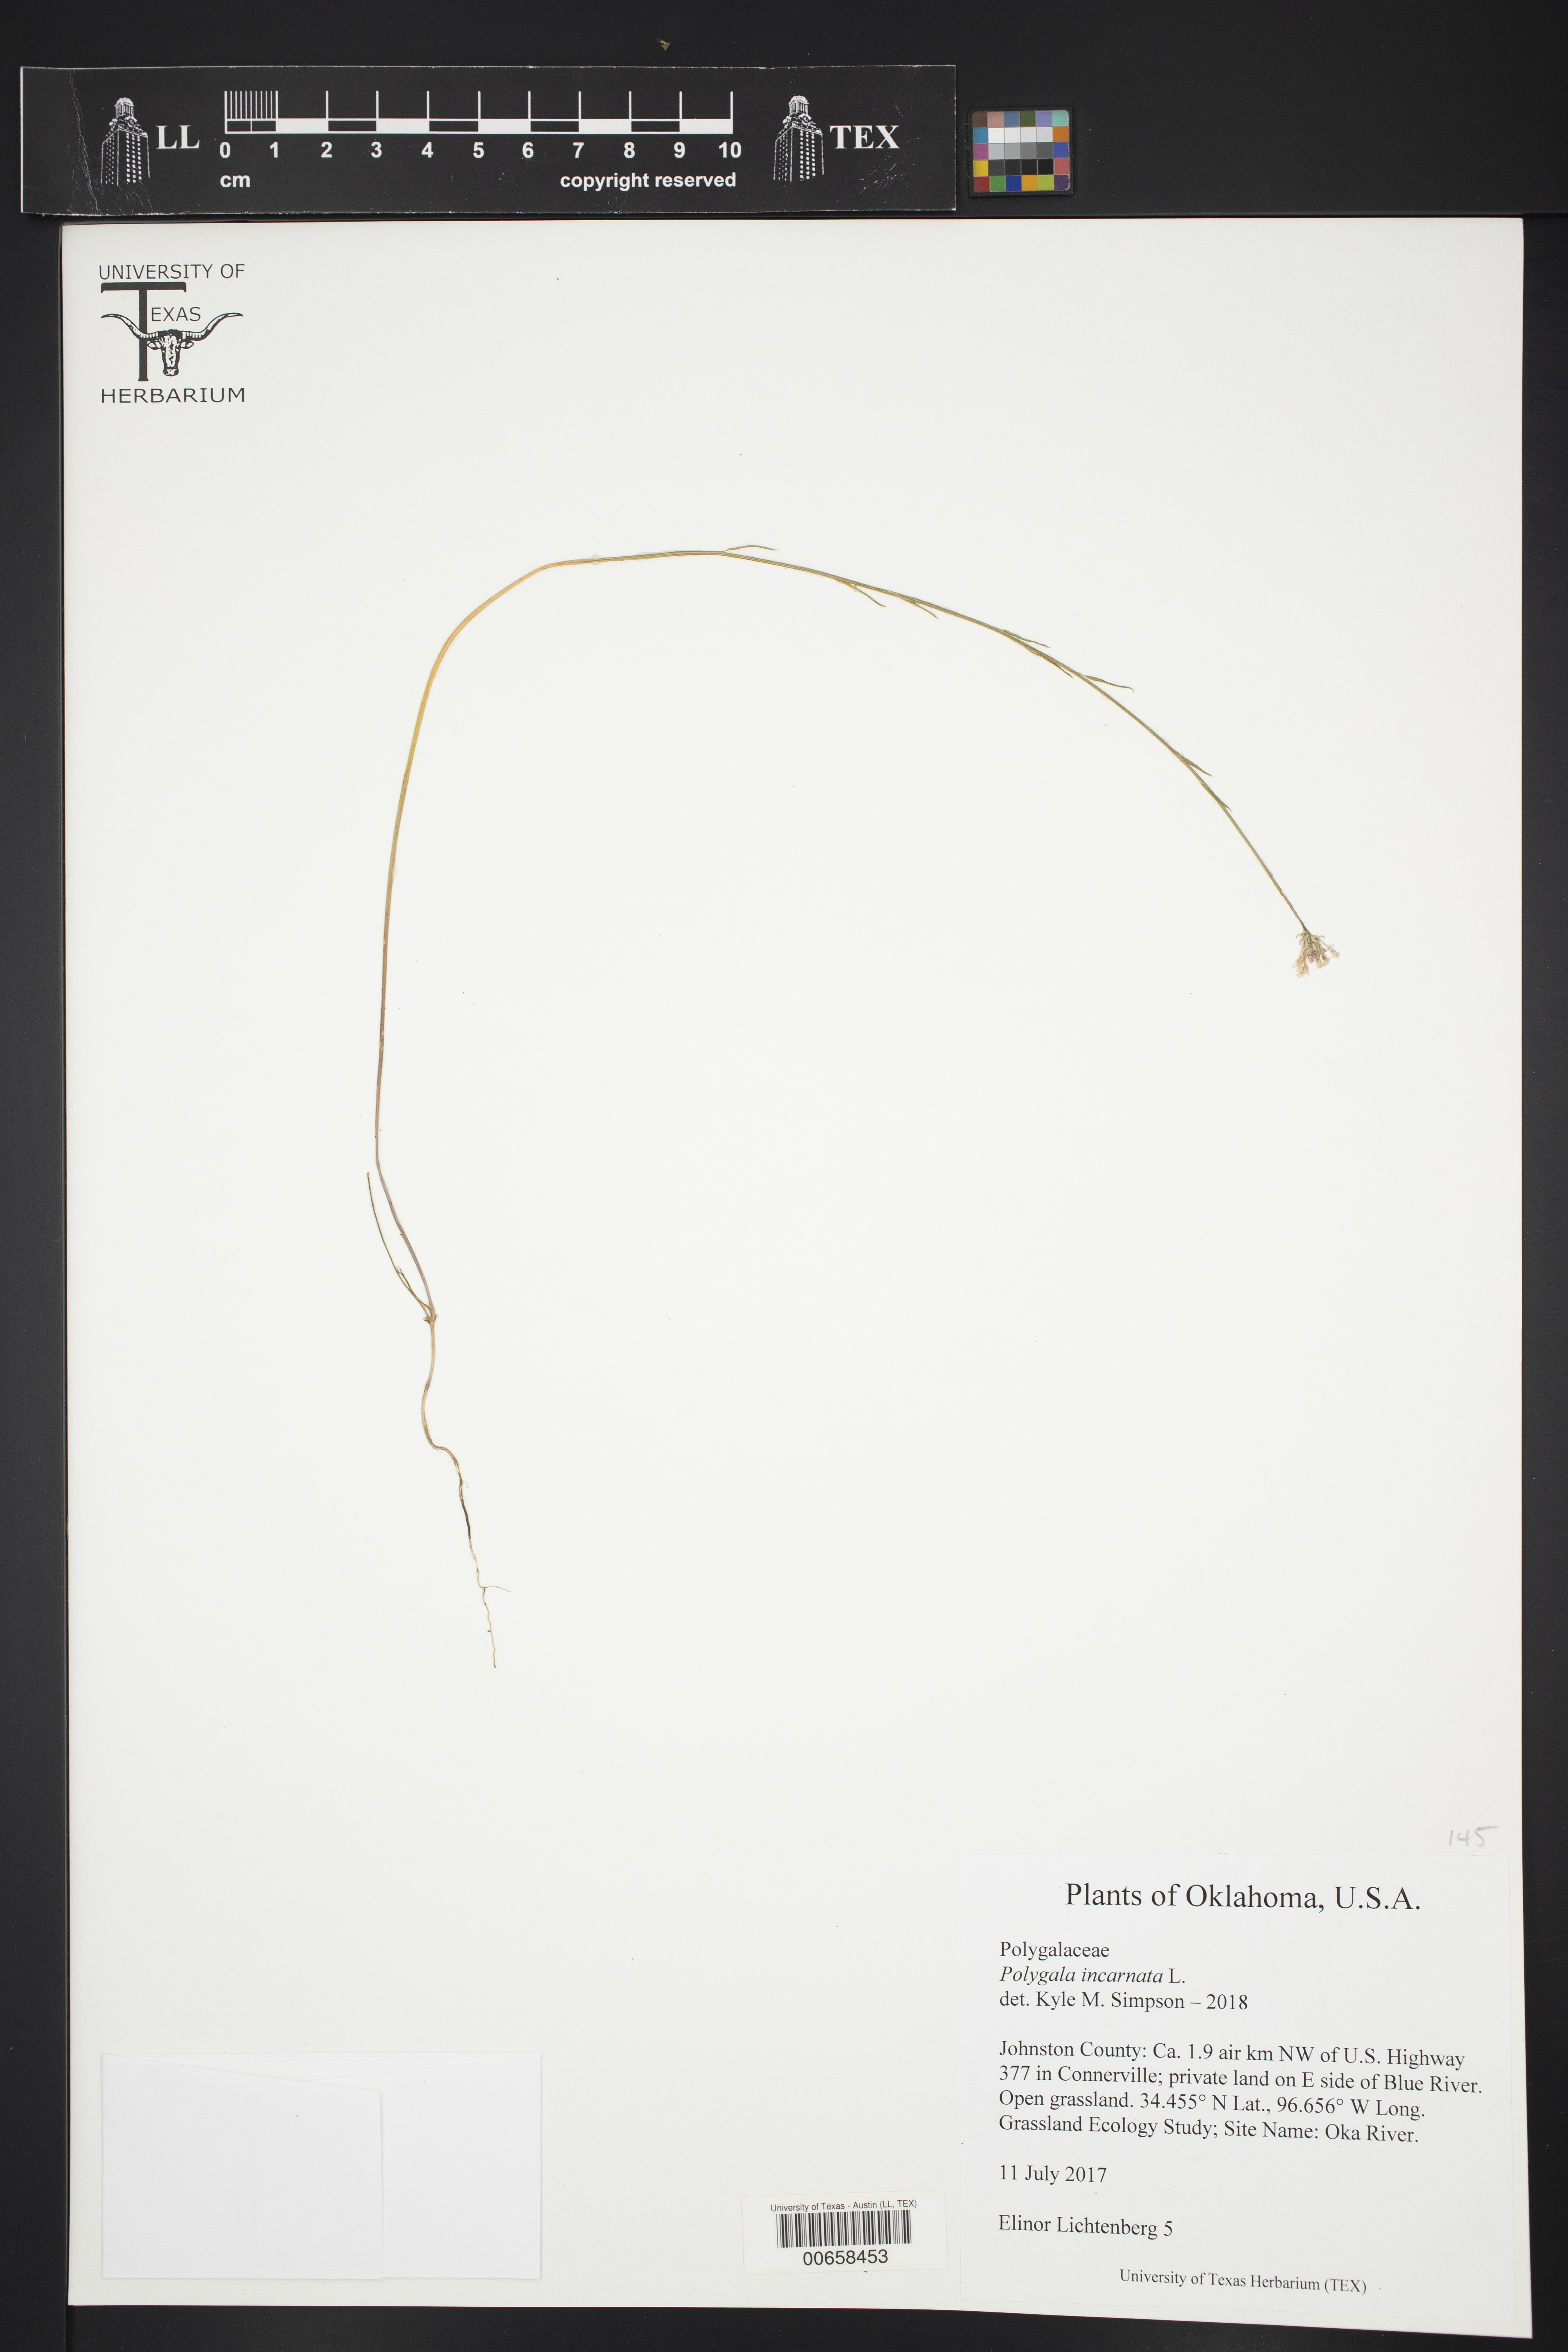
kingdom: Plantae
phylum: Tracheophyta
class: Magnoliopsida
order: Fabales
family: Polygalaceae
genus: Polygala
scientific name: Polygala incarnata
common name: Pink milkwort
